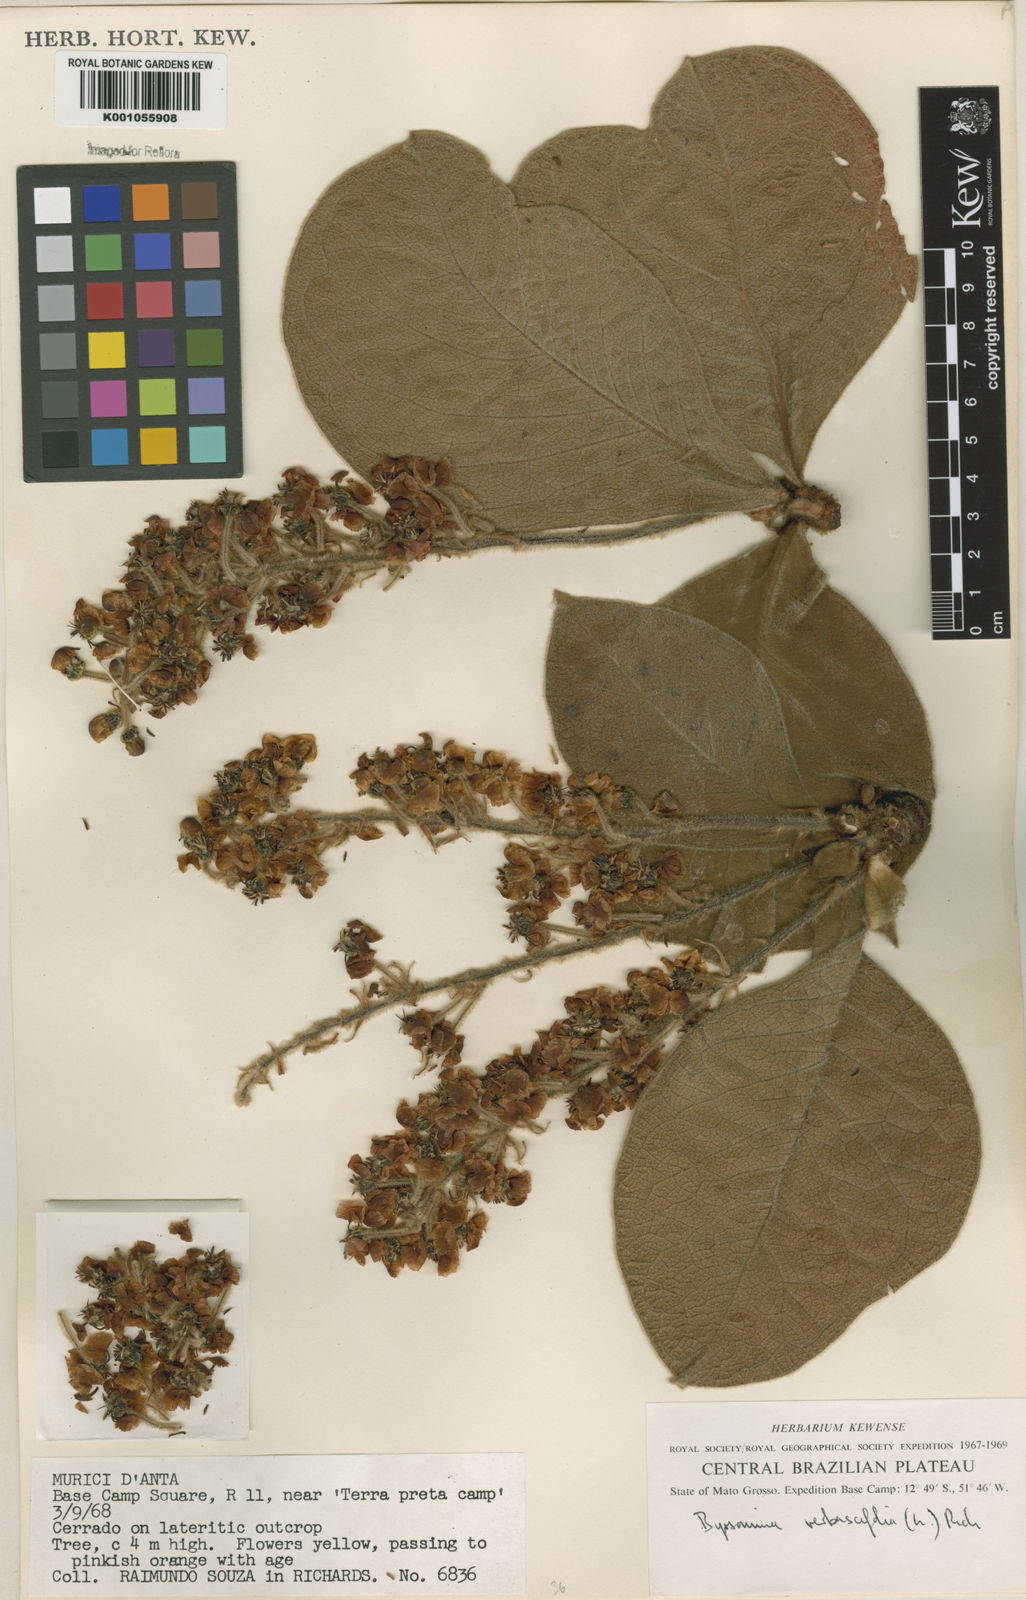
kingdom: Plantae
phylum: Tracheophyta
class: Magnoliopsida
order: Malpighiales
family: Malpighiaceae
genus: Byrsonima
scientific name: Byrsonima verbascifolia
